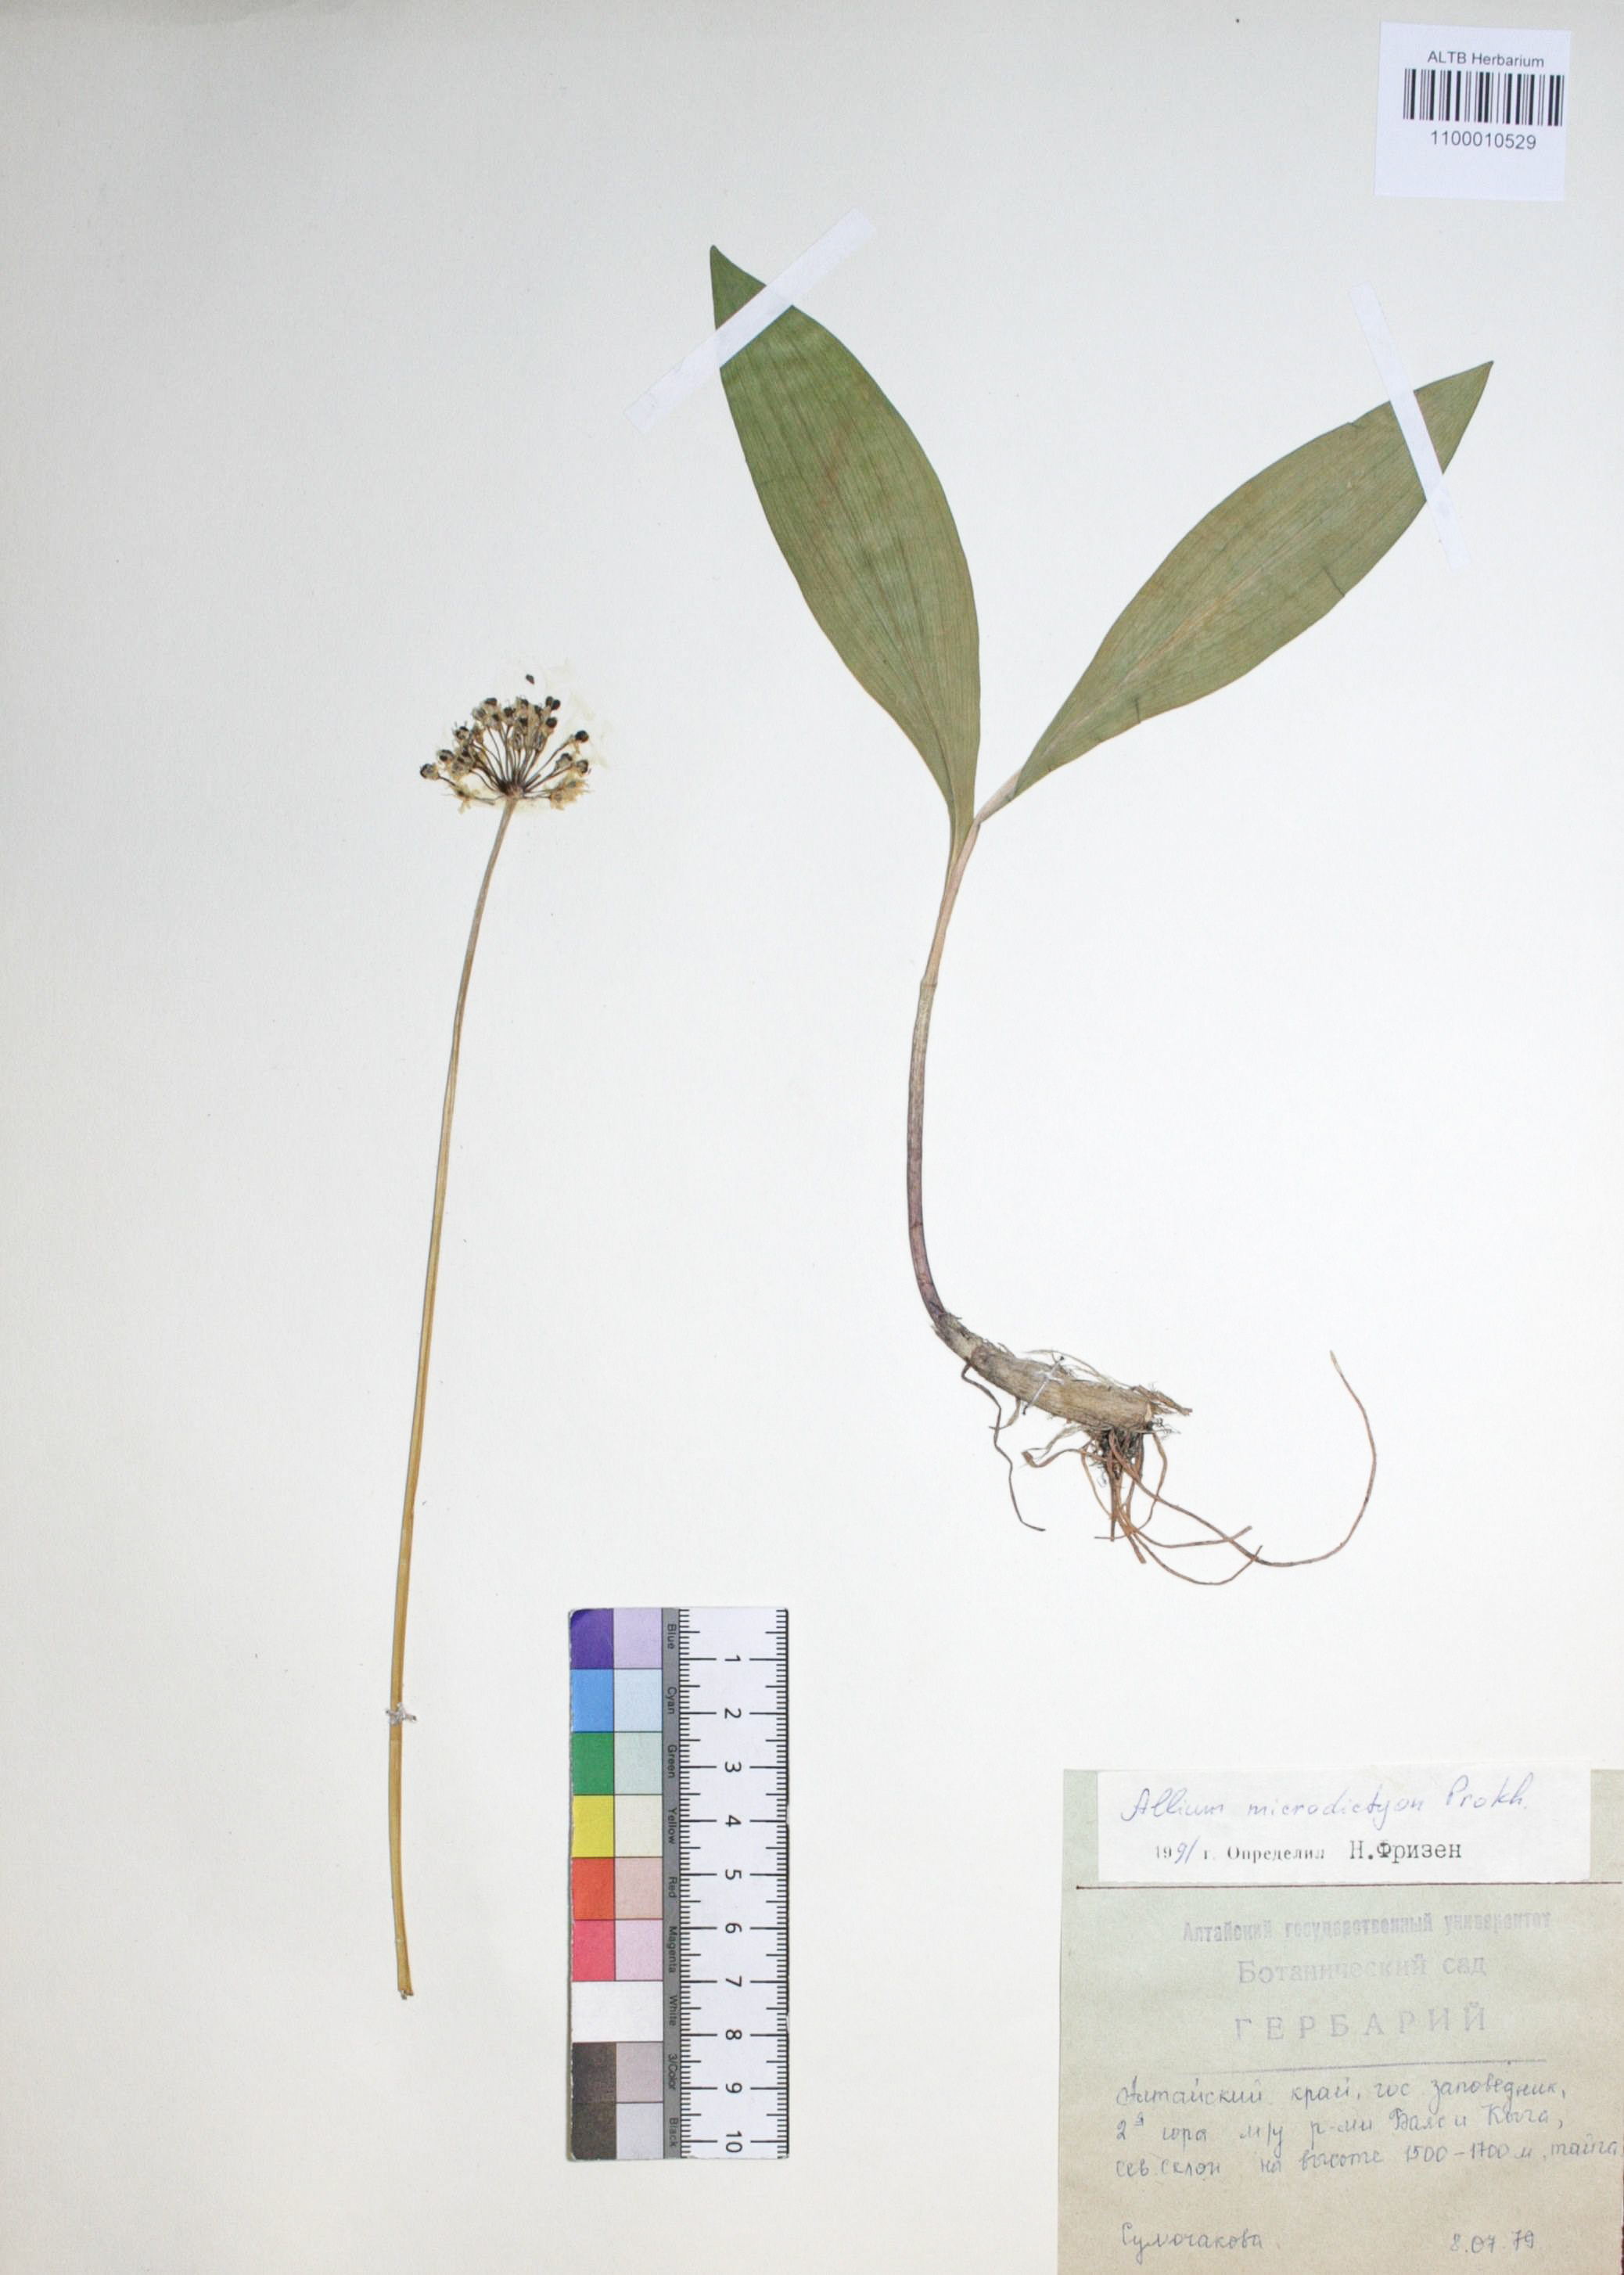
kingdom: Plantae
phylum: Tracheophyta
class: Liliopsida
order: Asparagales
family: Amaryllidaceae
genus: Allium
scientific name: Allium microdictyon
